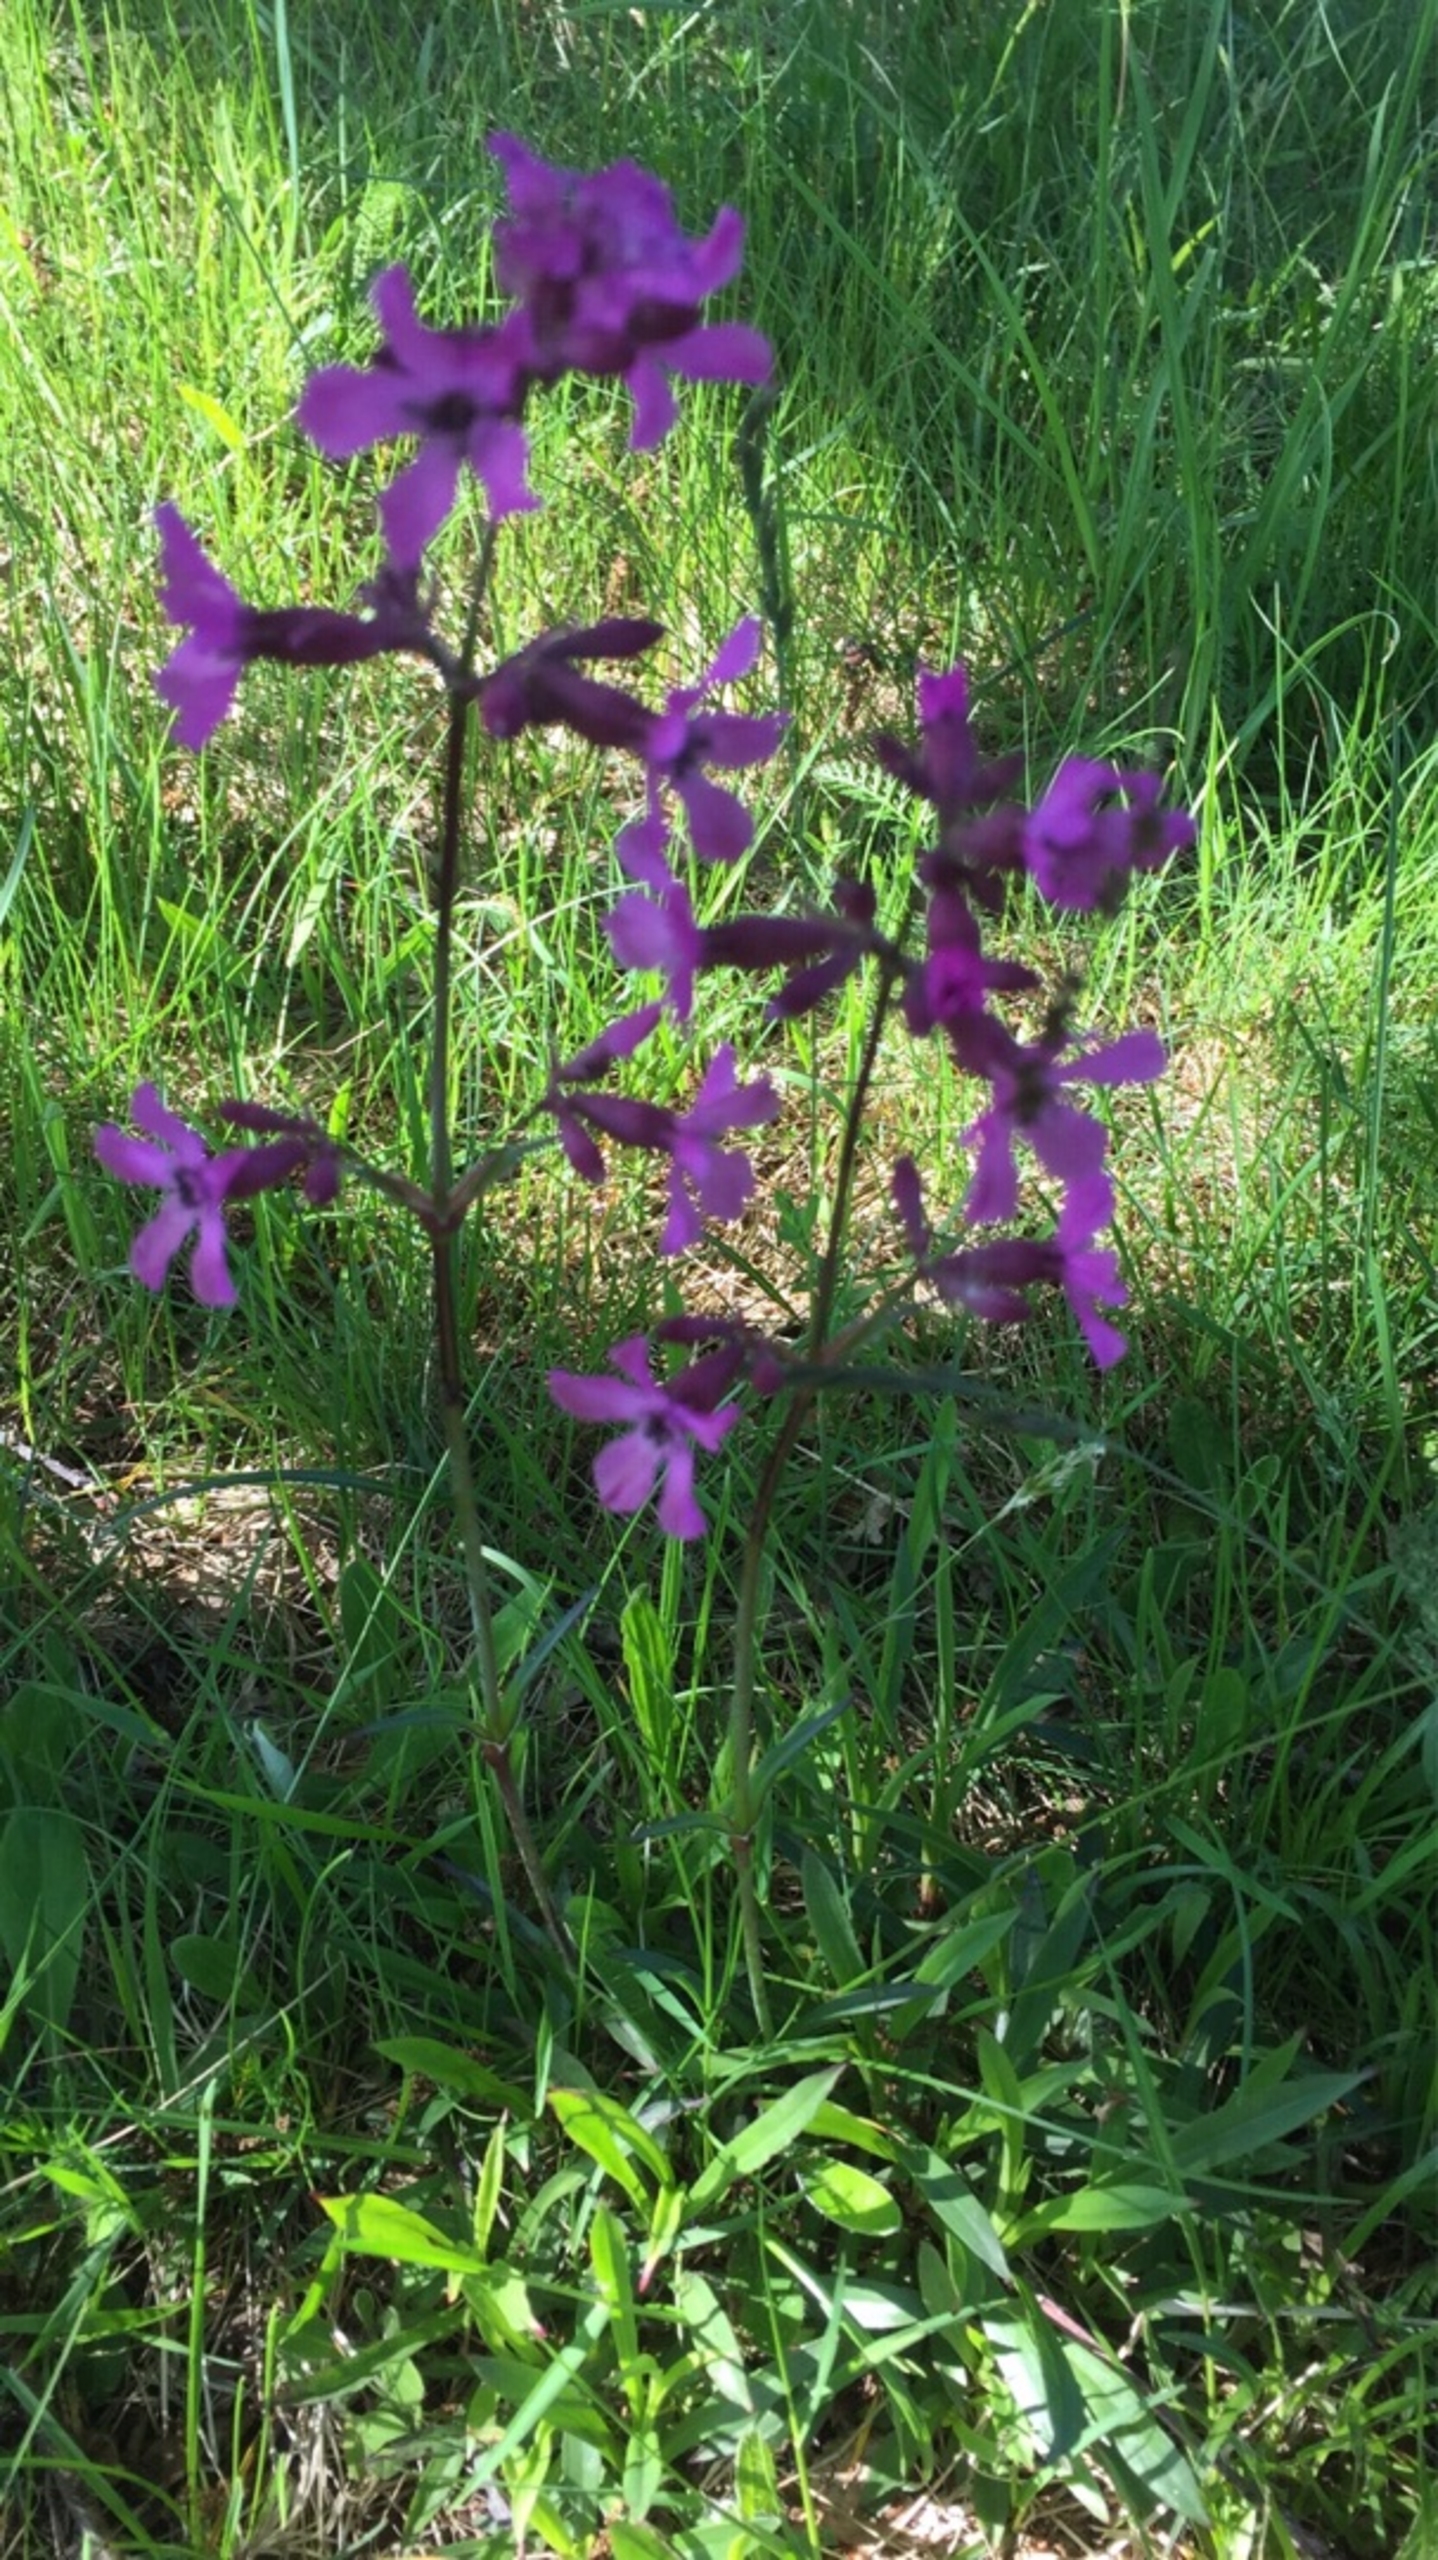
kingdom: Plantae
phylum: Tracheophyta
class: Magnoliopsida
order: Caryophyllales
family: Caryophyllaceae
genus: Viscaria
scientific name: Viscaria vulgaris
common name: Tjærenellike
